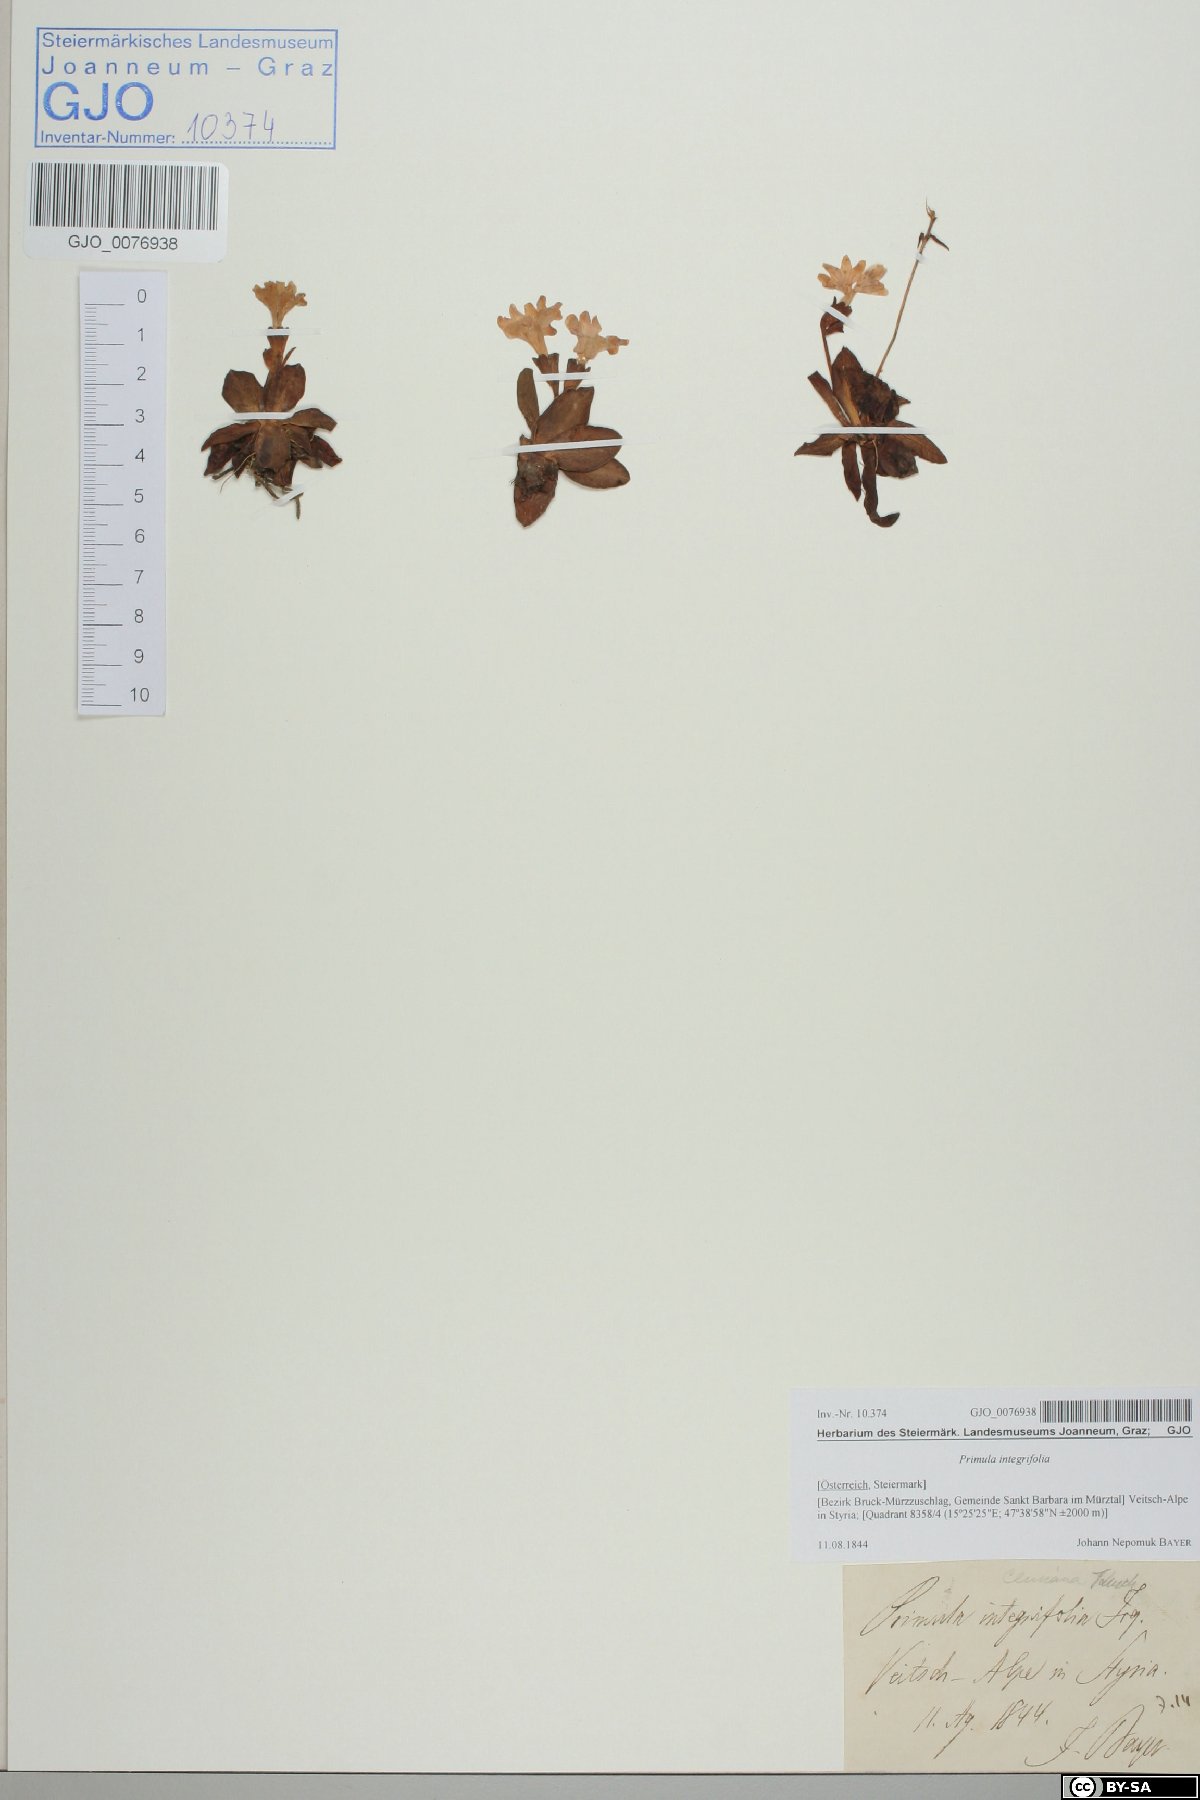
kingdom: Plantae
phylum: Tracheophyta
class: Magnoliopsida
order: Ericales
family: Primulaceae
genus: Primula
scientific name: Primula clusiana
